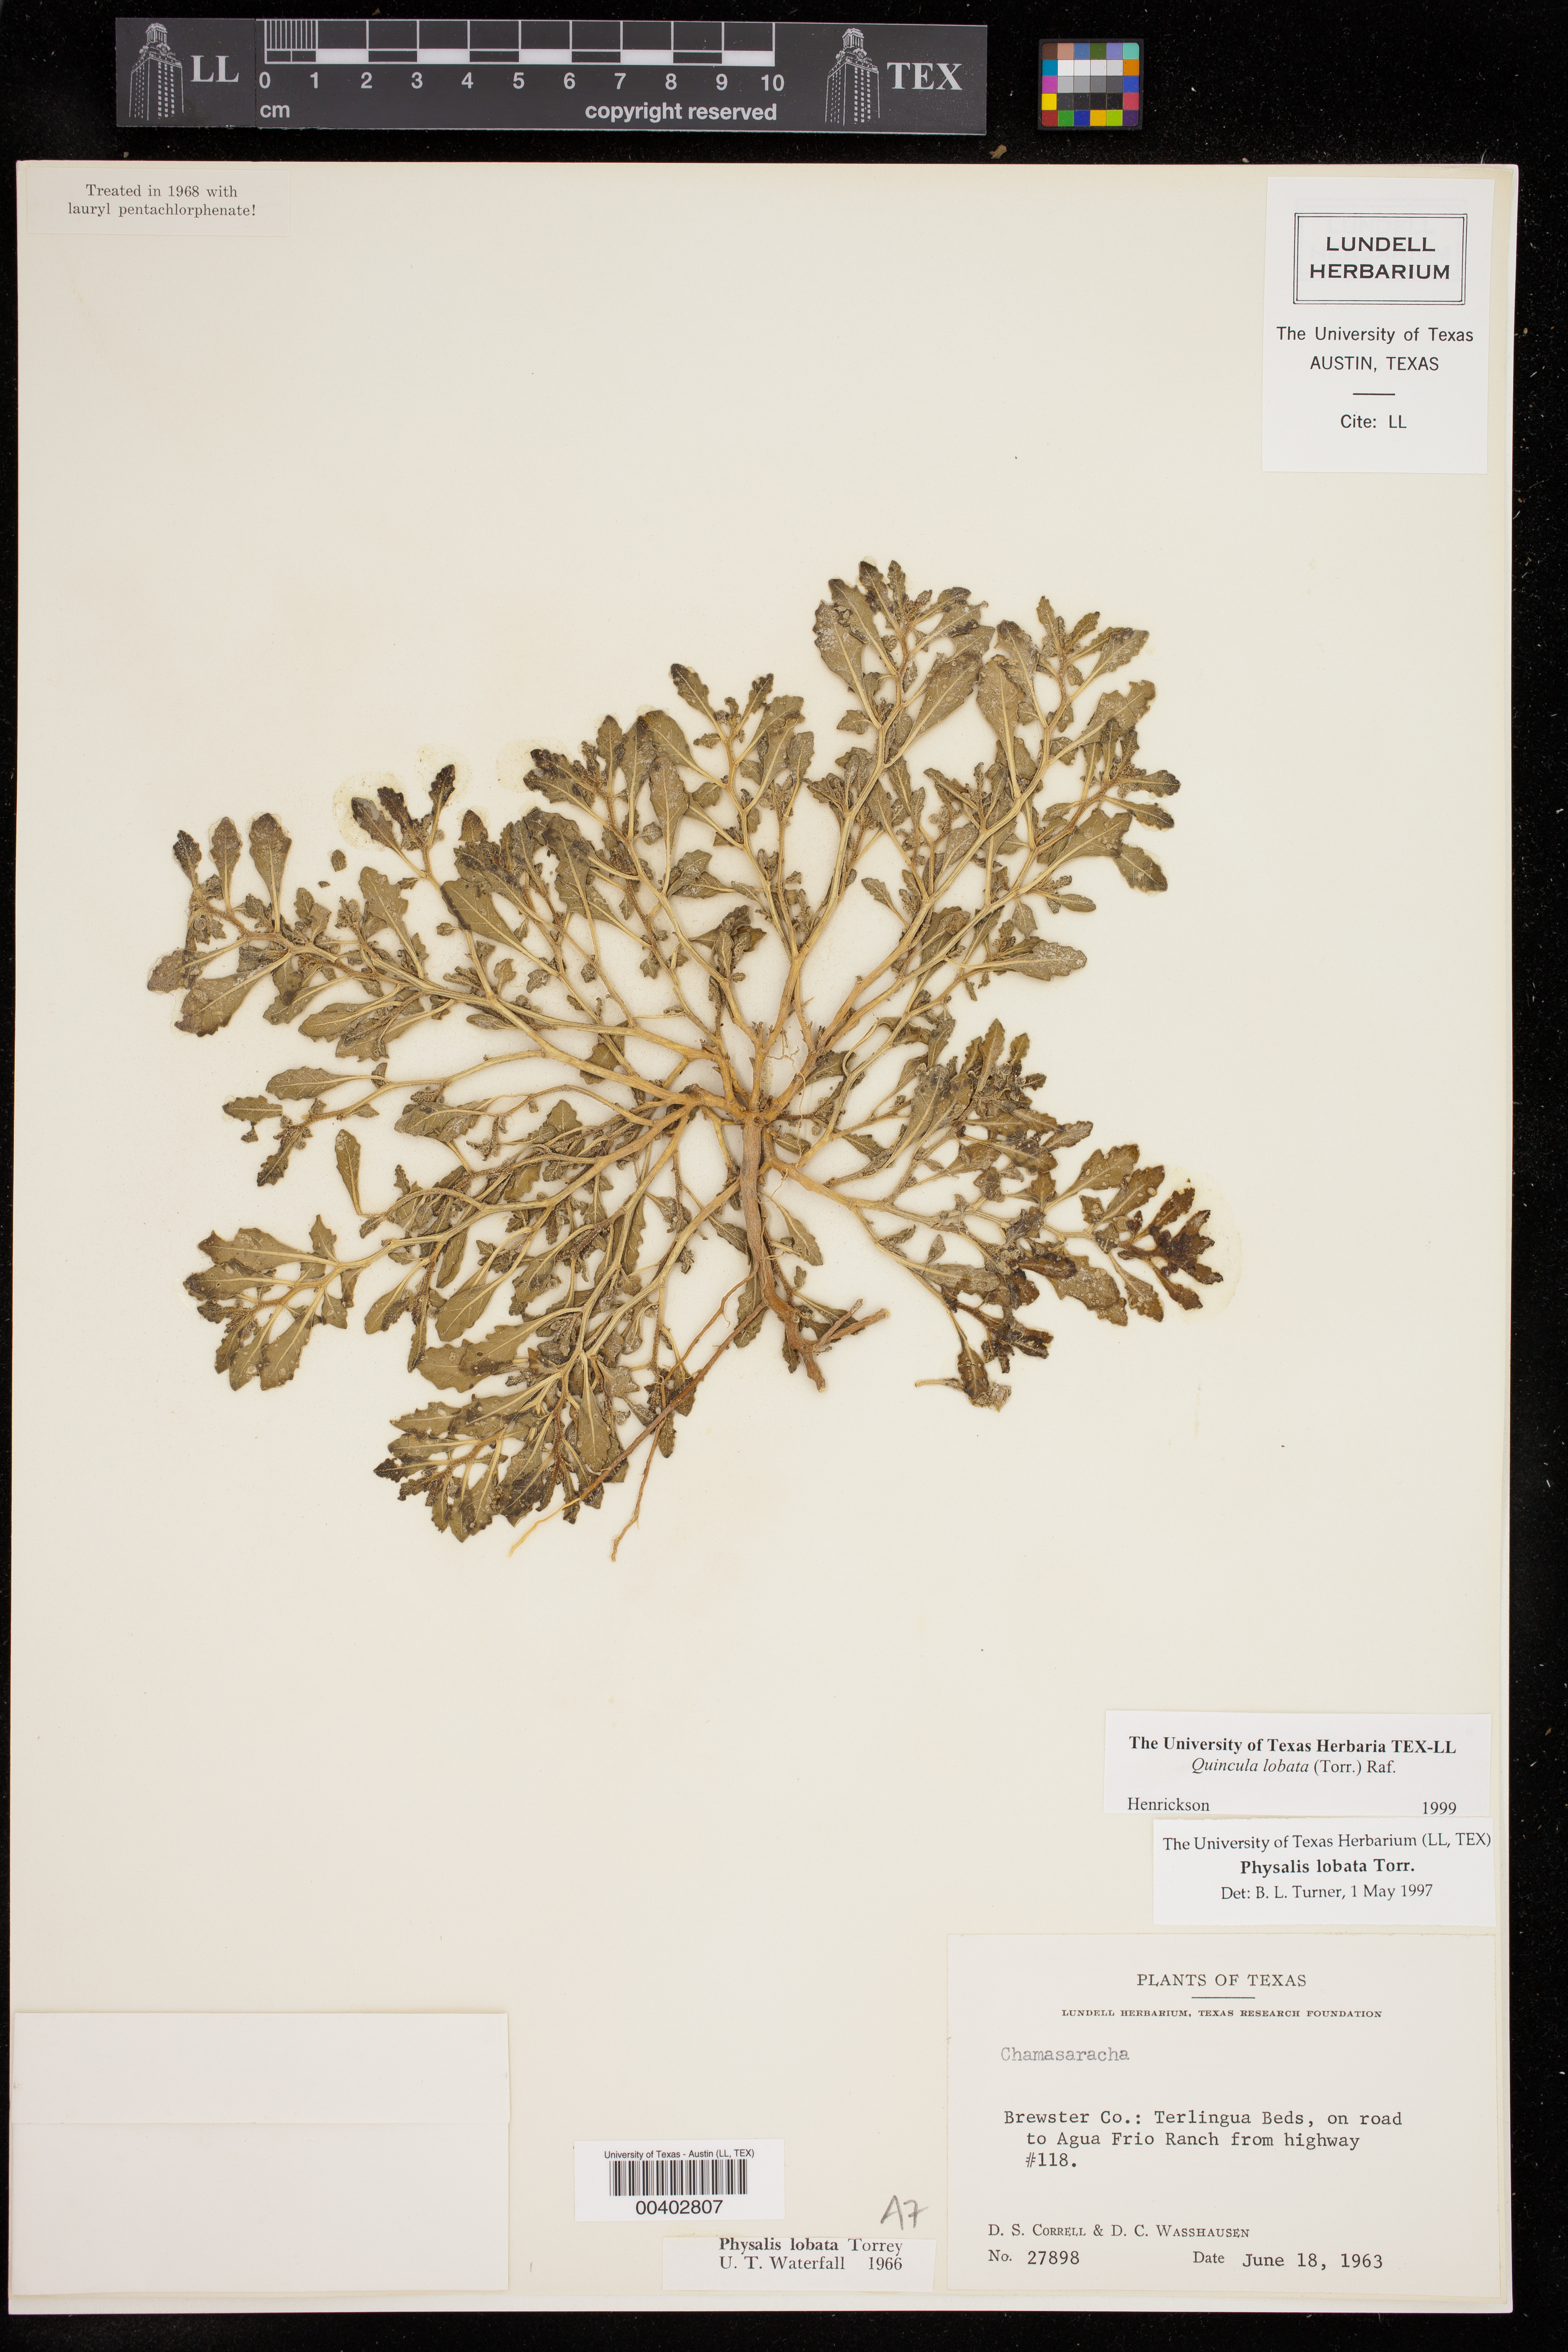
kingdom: Plantae
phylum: Tracheophyta
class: Magnoliopsida
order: Solanales
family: Solanaceae
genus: Quincula
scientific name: Quincula lobata
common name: Purple-ground-cherry
